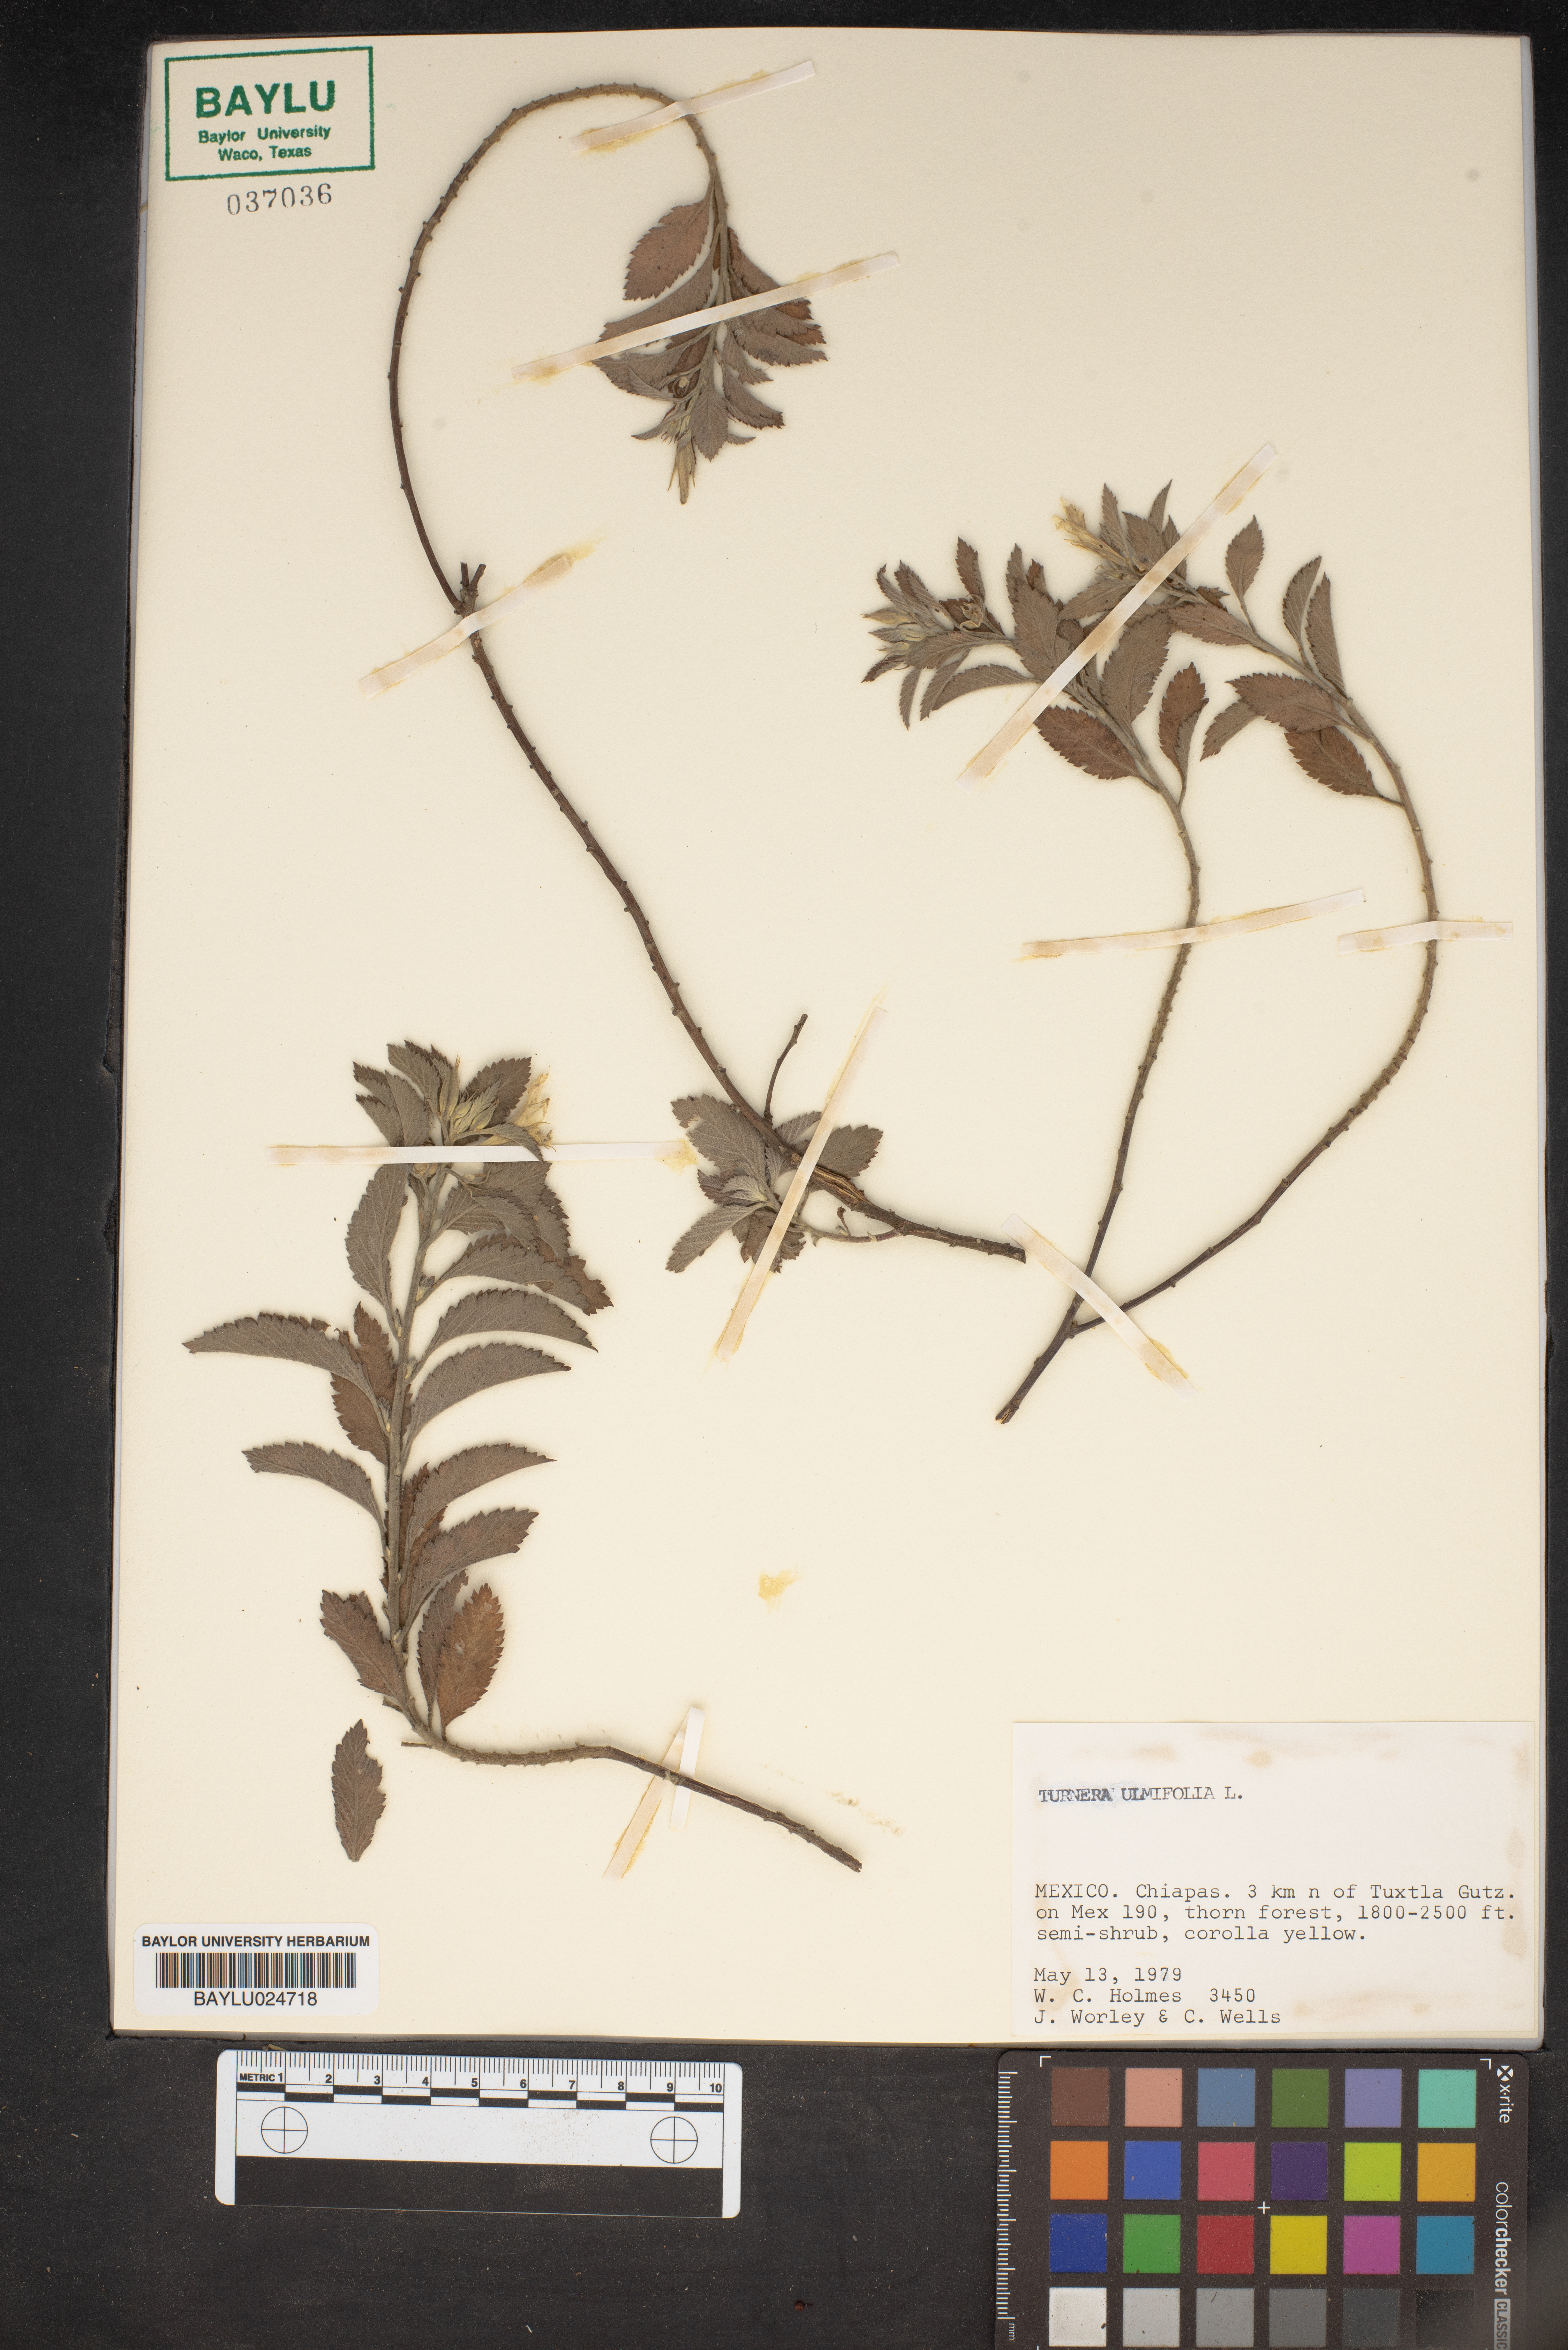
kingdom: Plantae
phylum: Tracheophyta
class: Magnoliopsida
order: Malpighiales
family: Turneraceae
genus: Turnera
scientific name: Turnera ulmifolia
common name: Ramgoat dashalong
